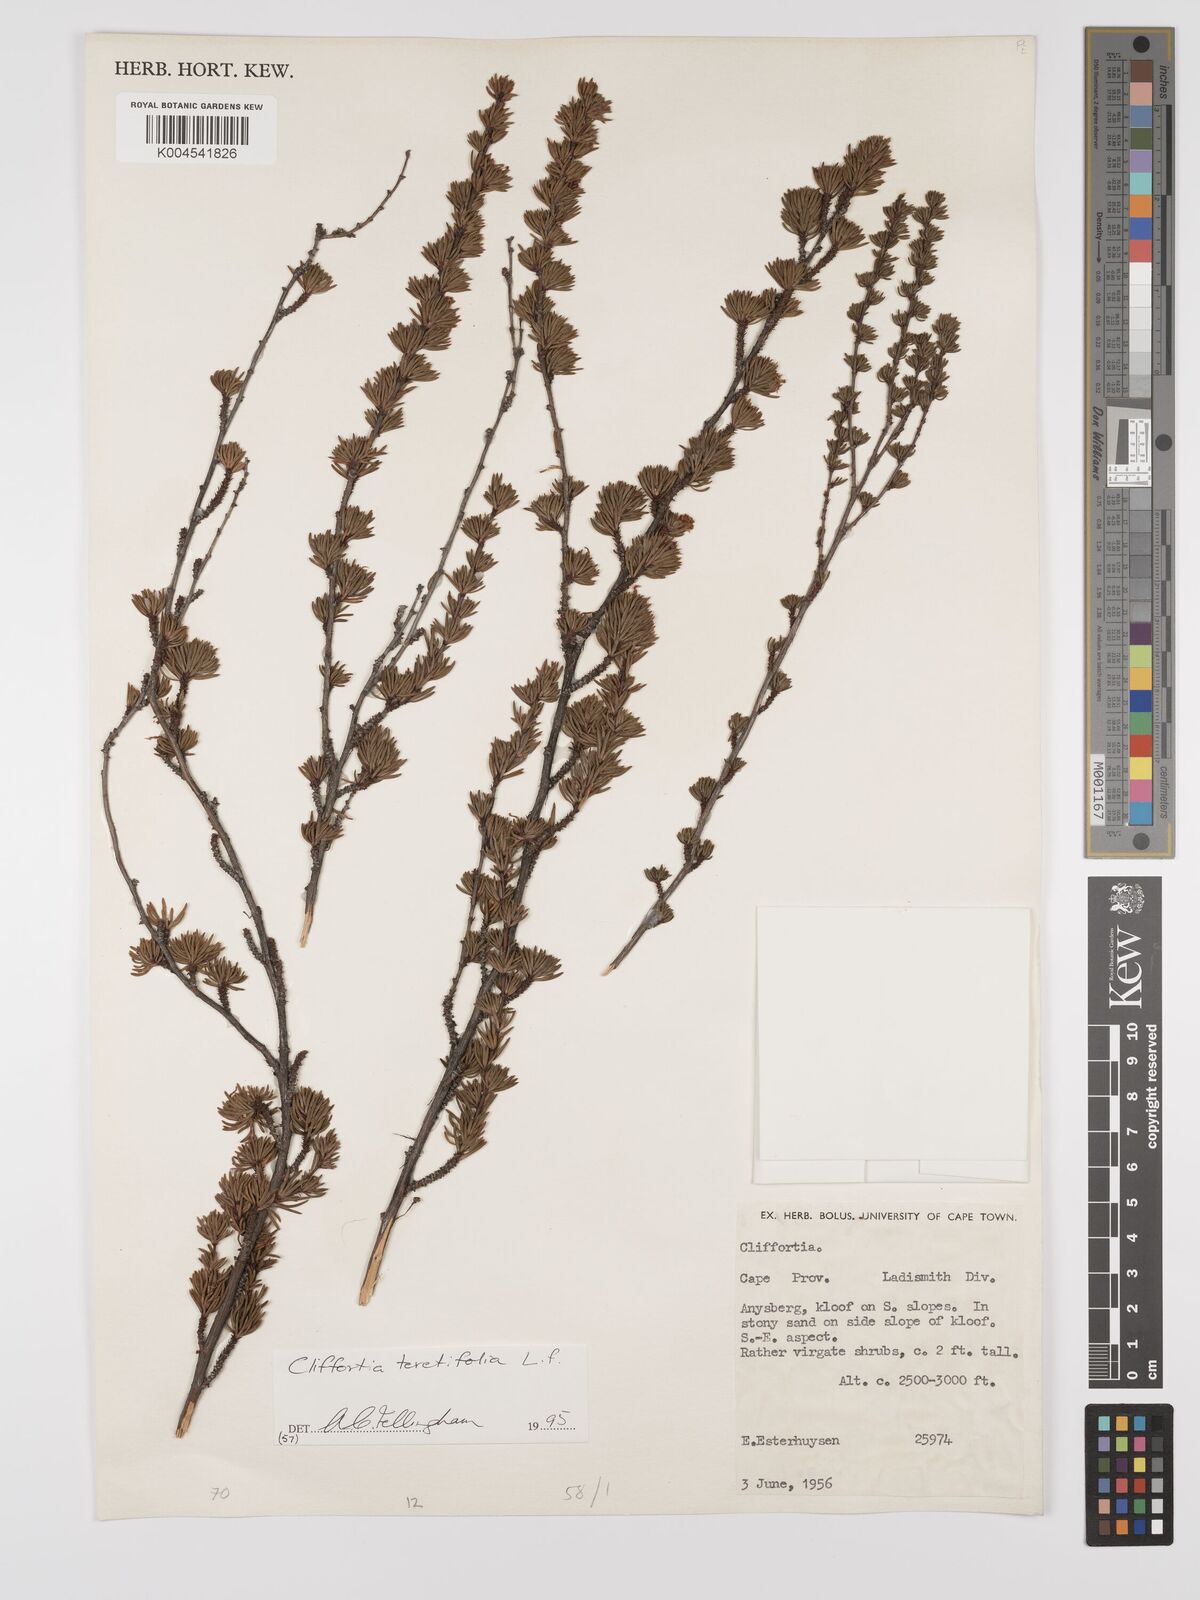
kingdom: Plantae
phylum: Tracheophyta
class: Magnoliopsida
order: Rosales
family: Rosaceae
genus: Cliffortia
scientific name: Cliffortia teretifolia
